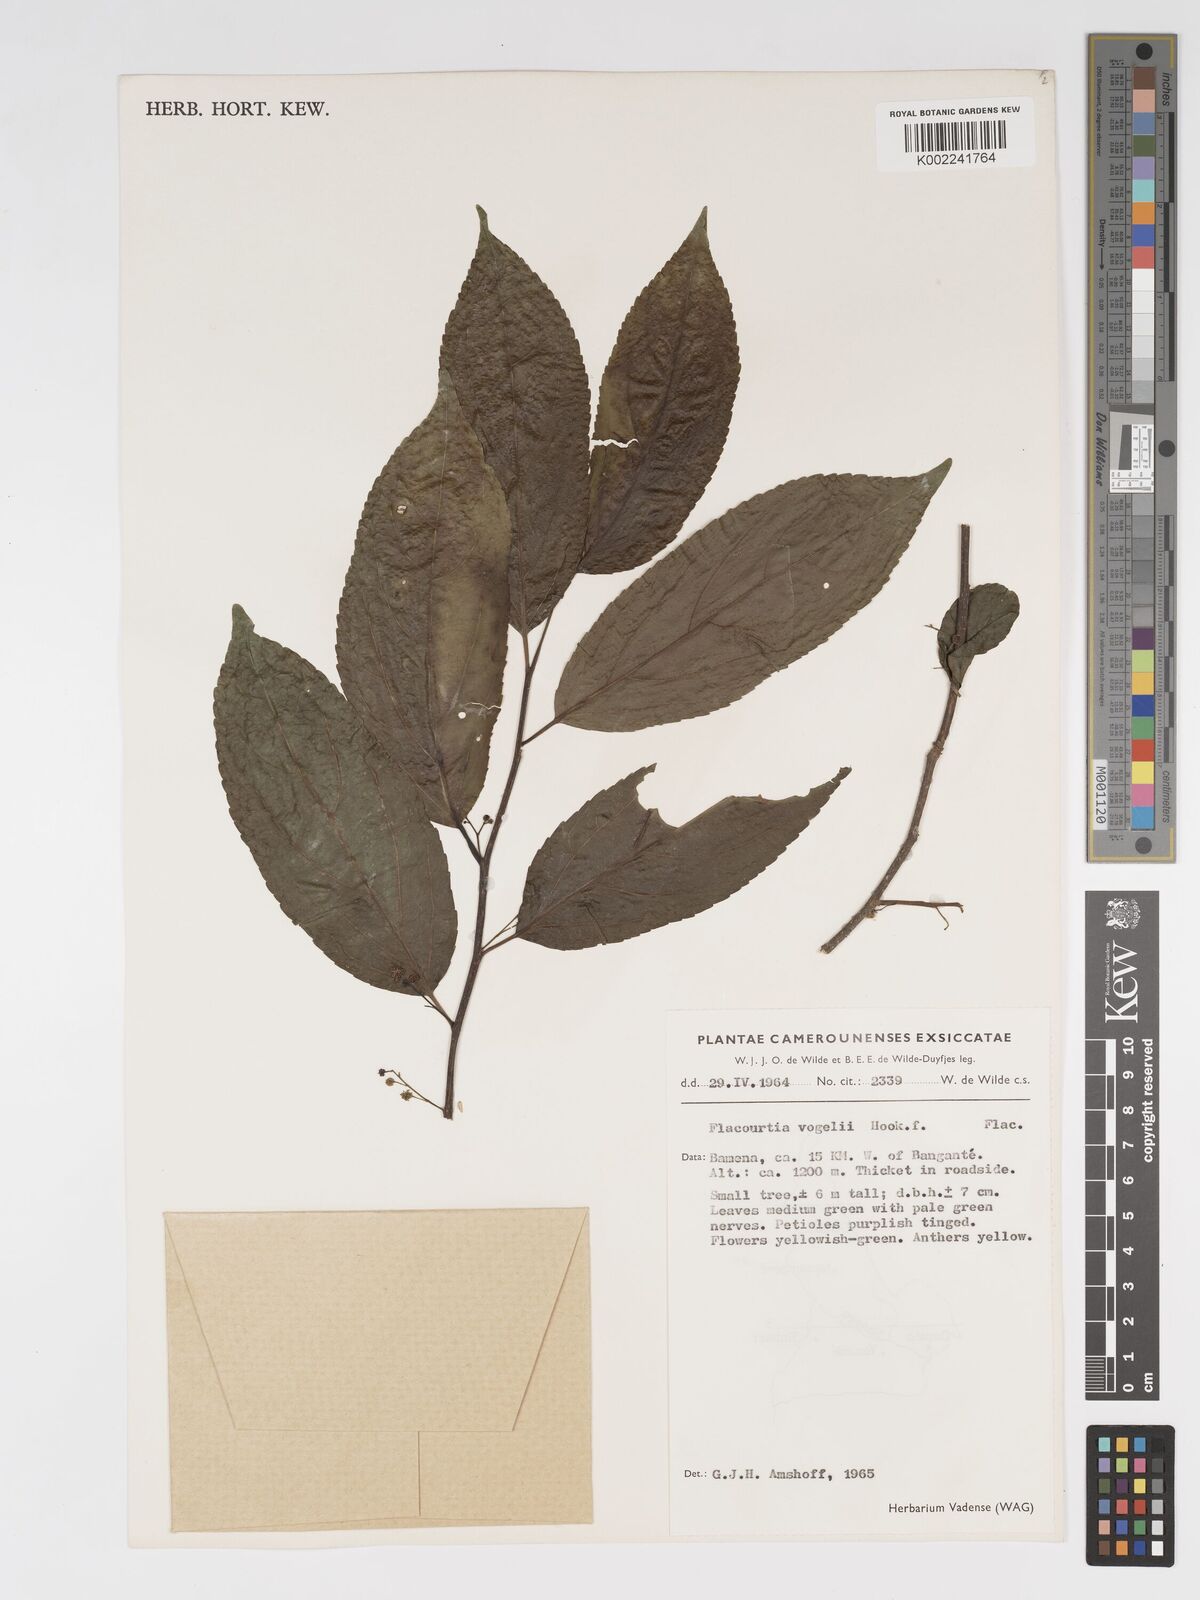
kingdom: Plantae
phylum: Tracheophyta
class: Magnoliopsida
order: Malpighiales
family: Salicaceae
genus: Flacourtia
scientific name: Flacourtia vogelii
